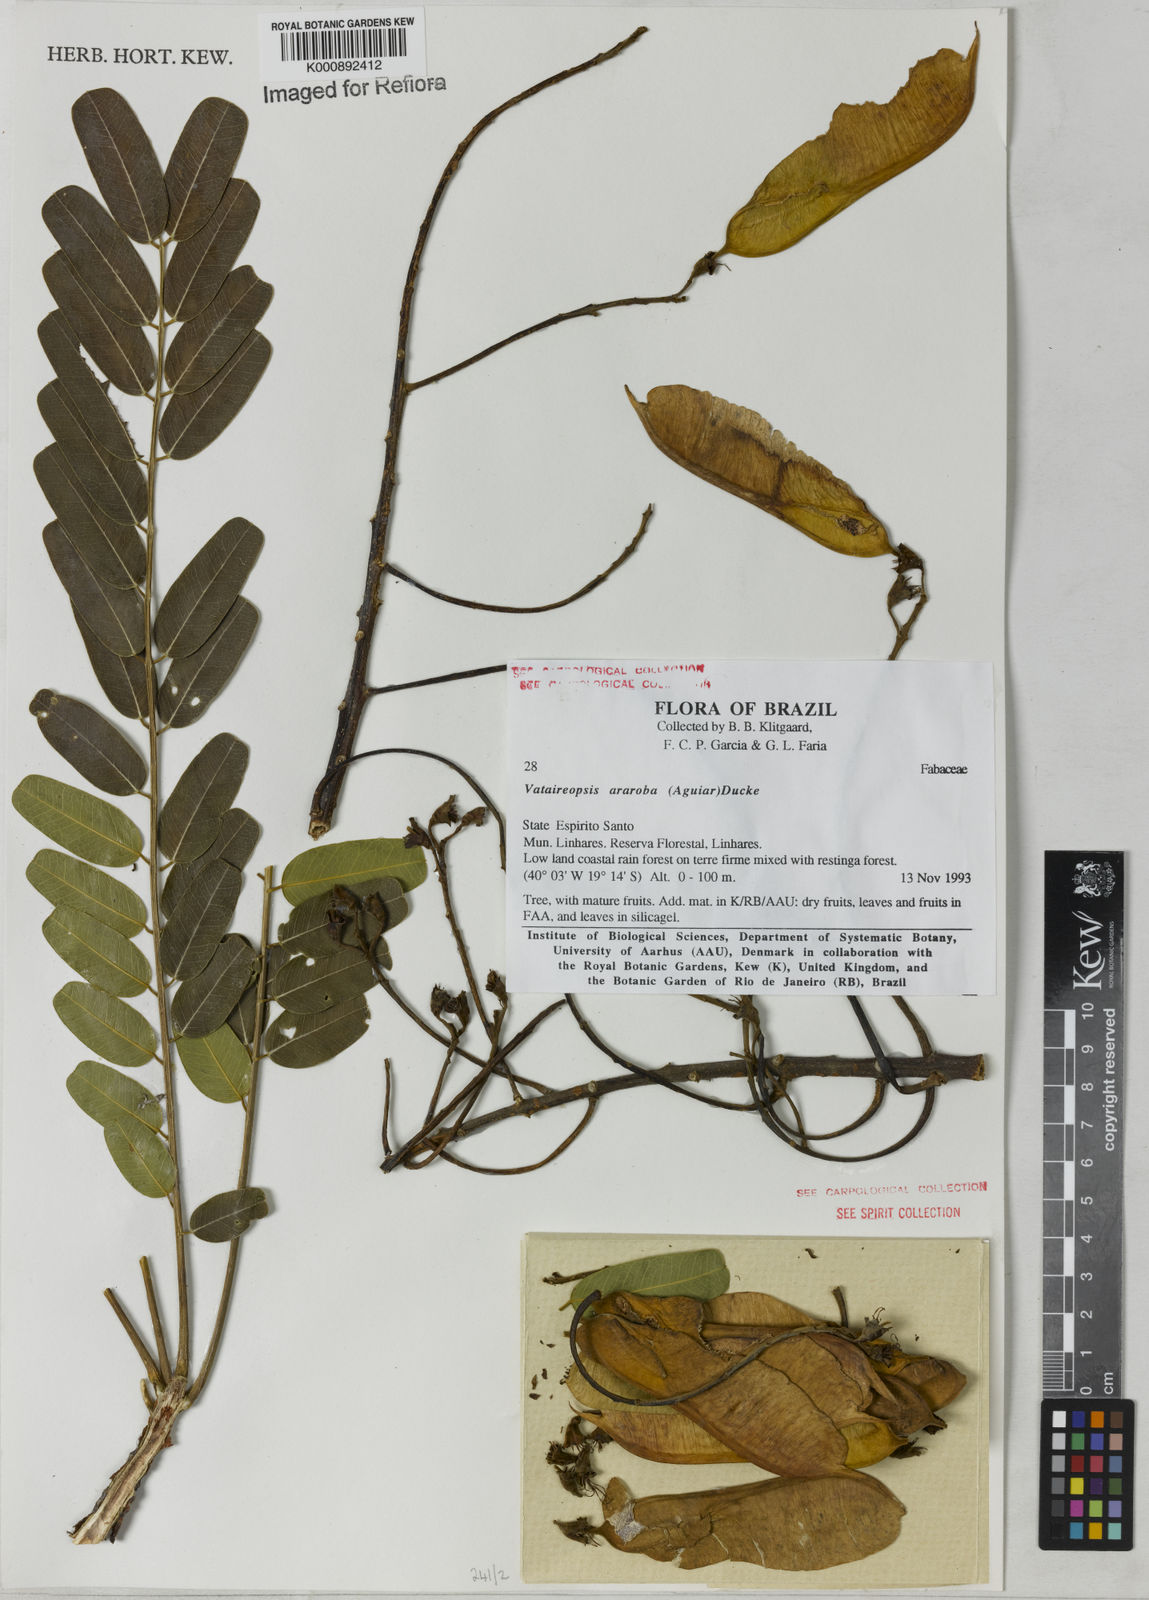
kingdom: Plantae
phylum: Tracheophyta
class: Magnoliopsida
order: Fabales
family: Fabaceae
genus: Vataireopsis
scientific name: Vataireopsis araroba
